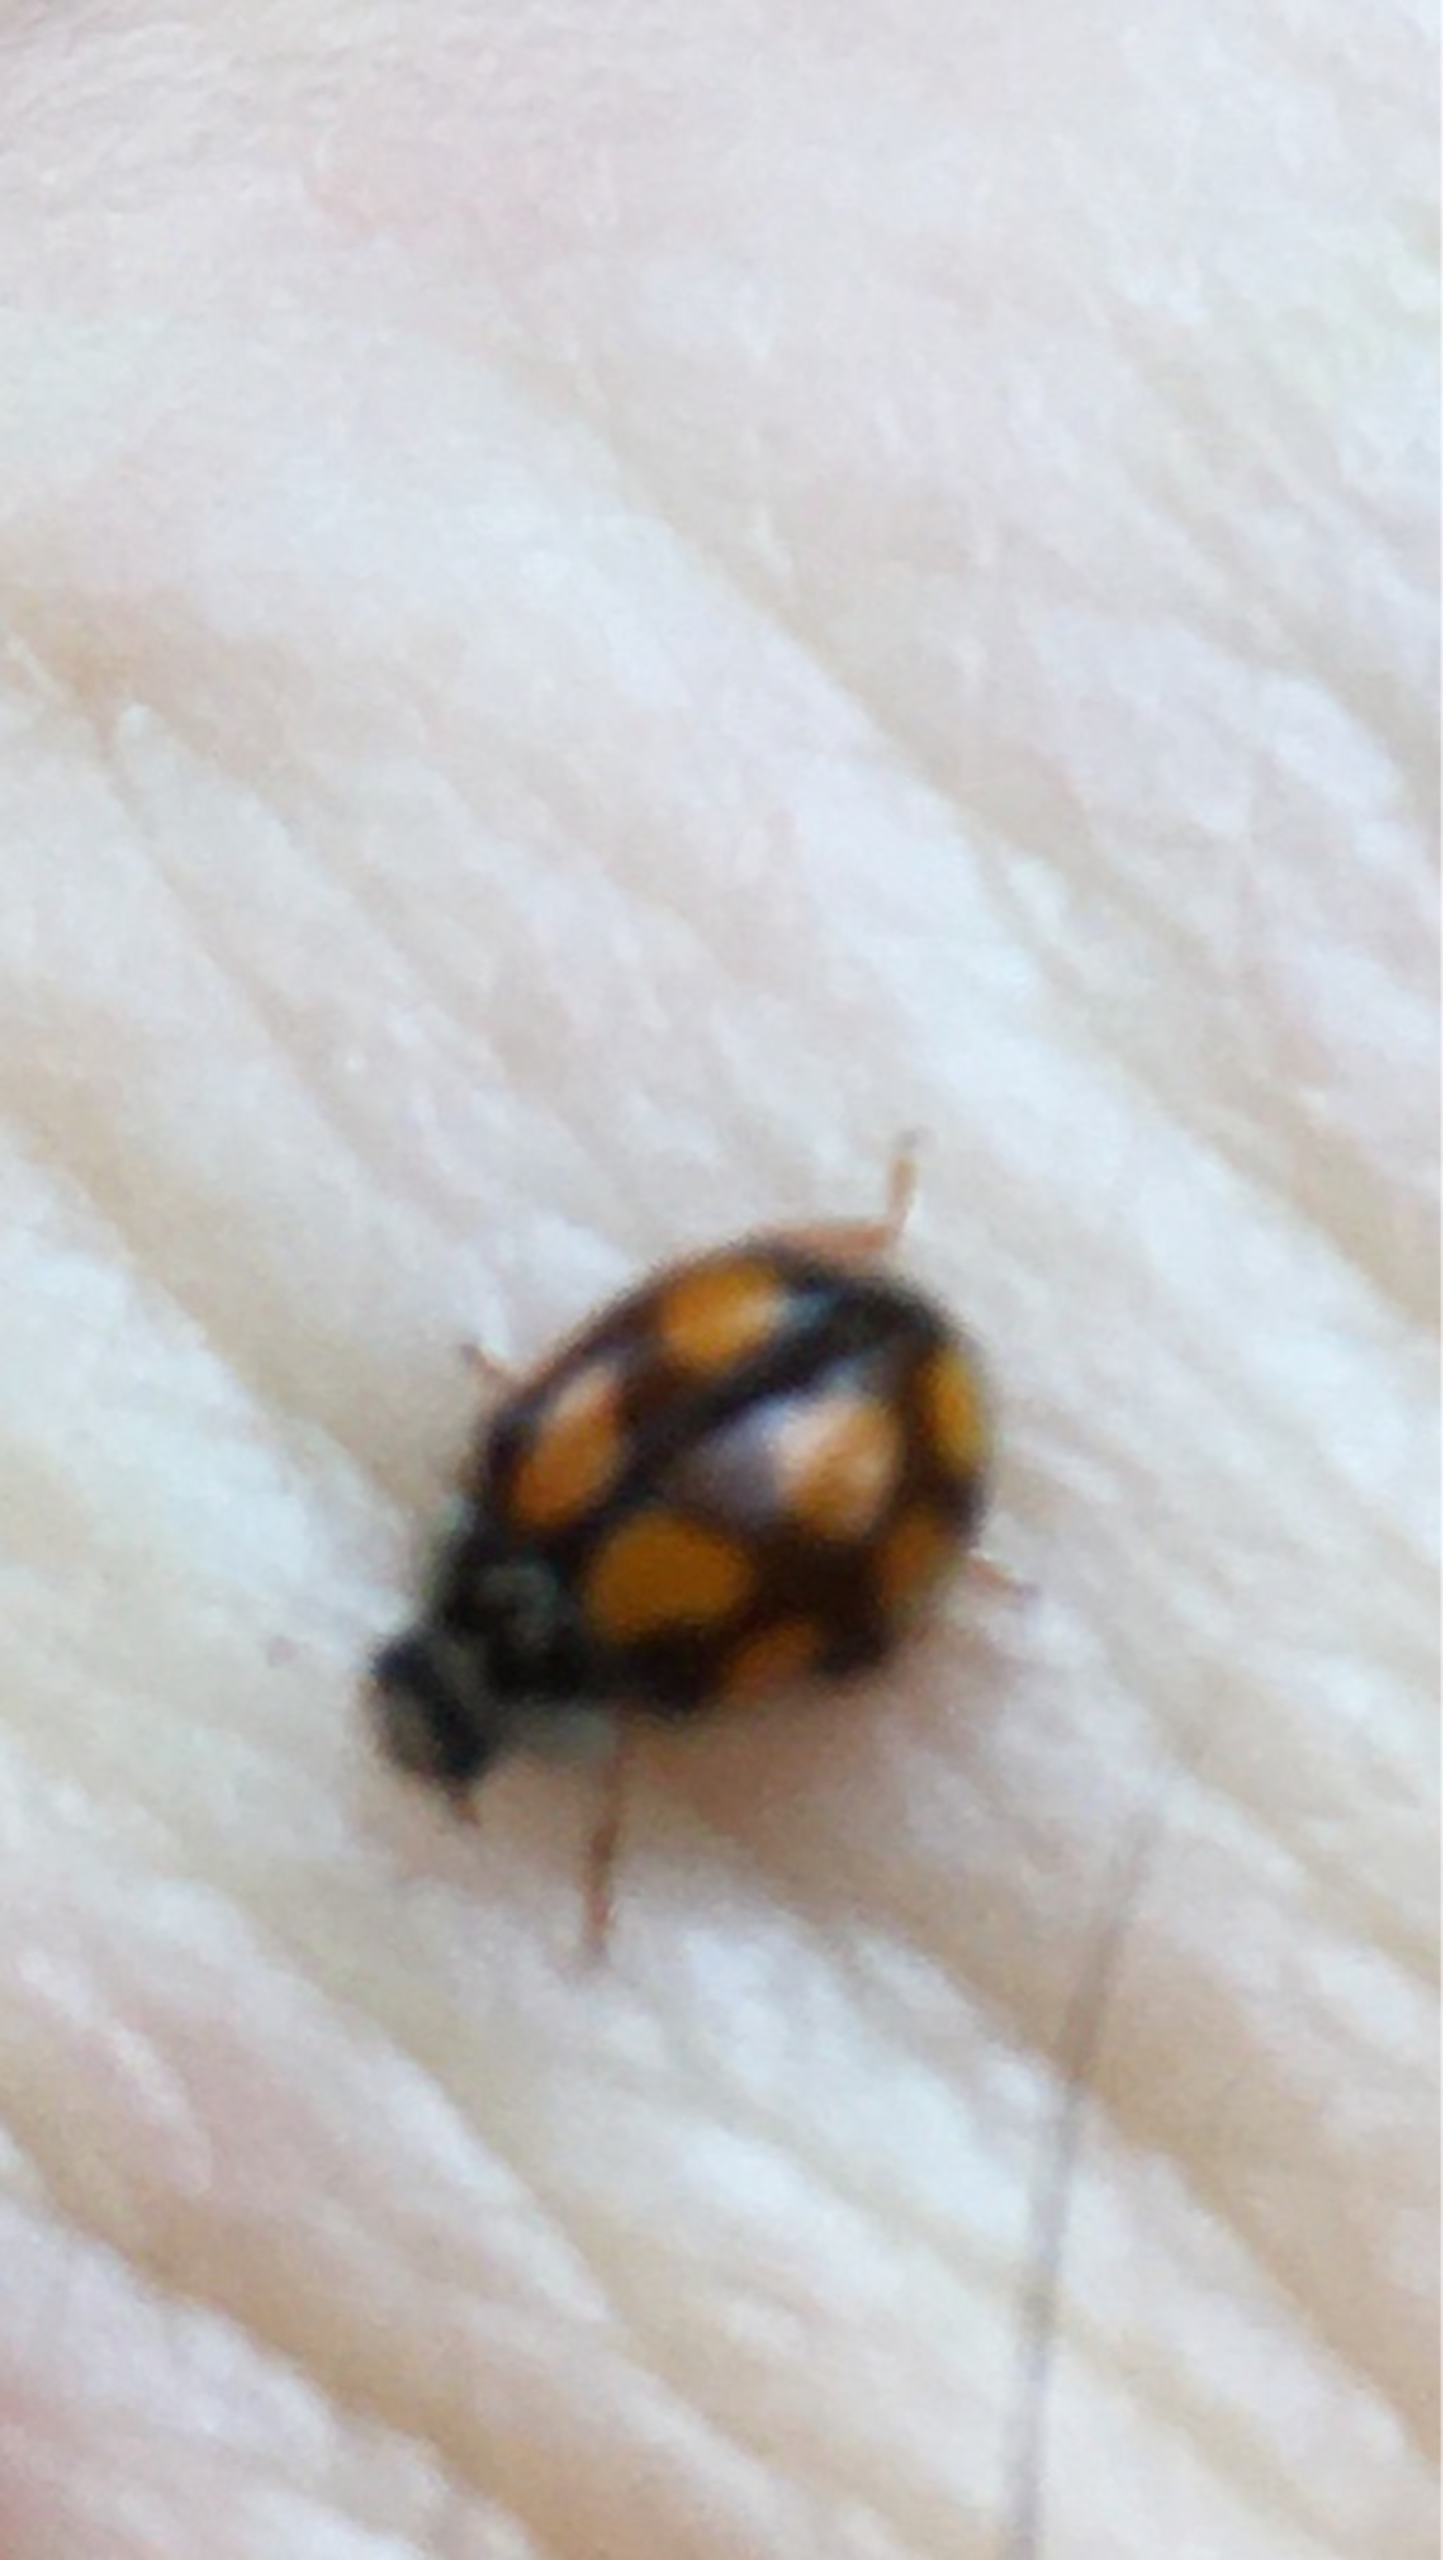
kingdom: Animalia
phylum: Arthropoda
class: Insecta
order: Coleoptera
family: Coccinellidae
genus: Adalia
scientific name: Adalia decempunctata
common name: Tiplettet mariehøne
